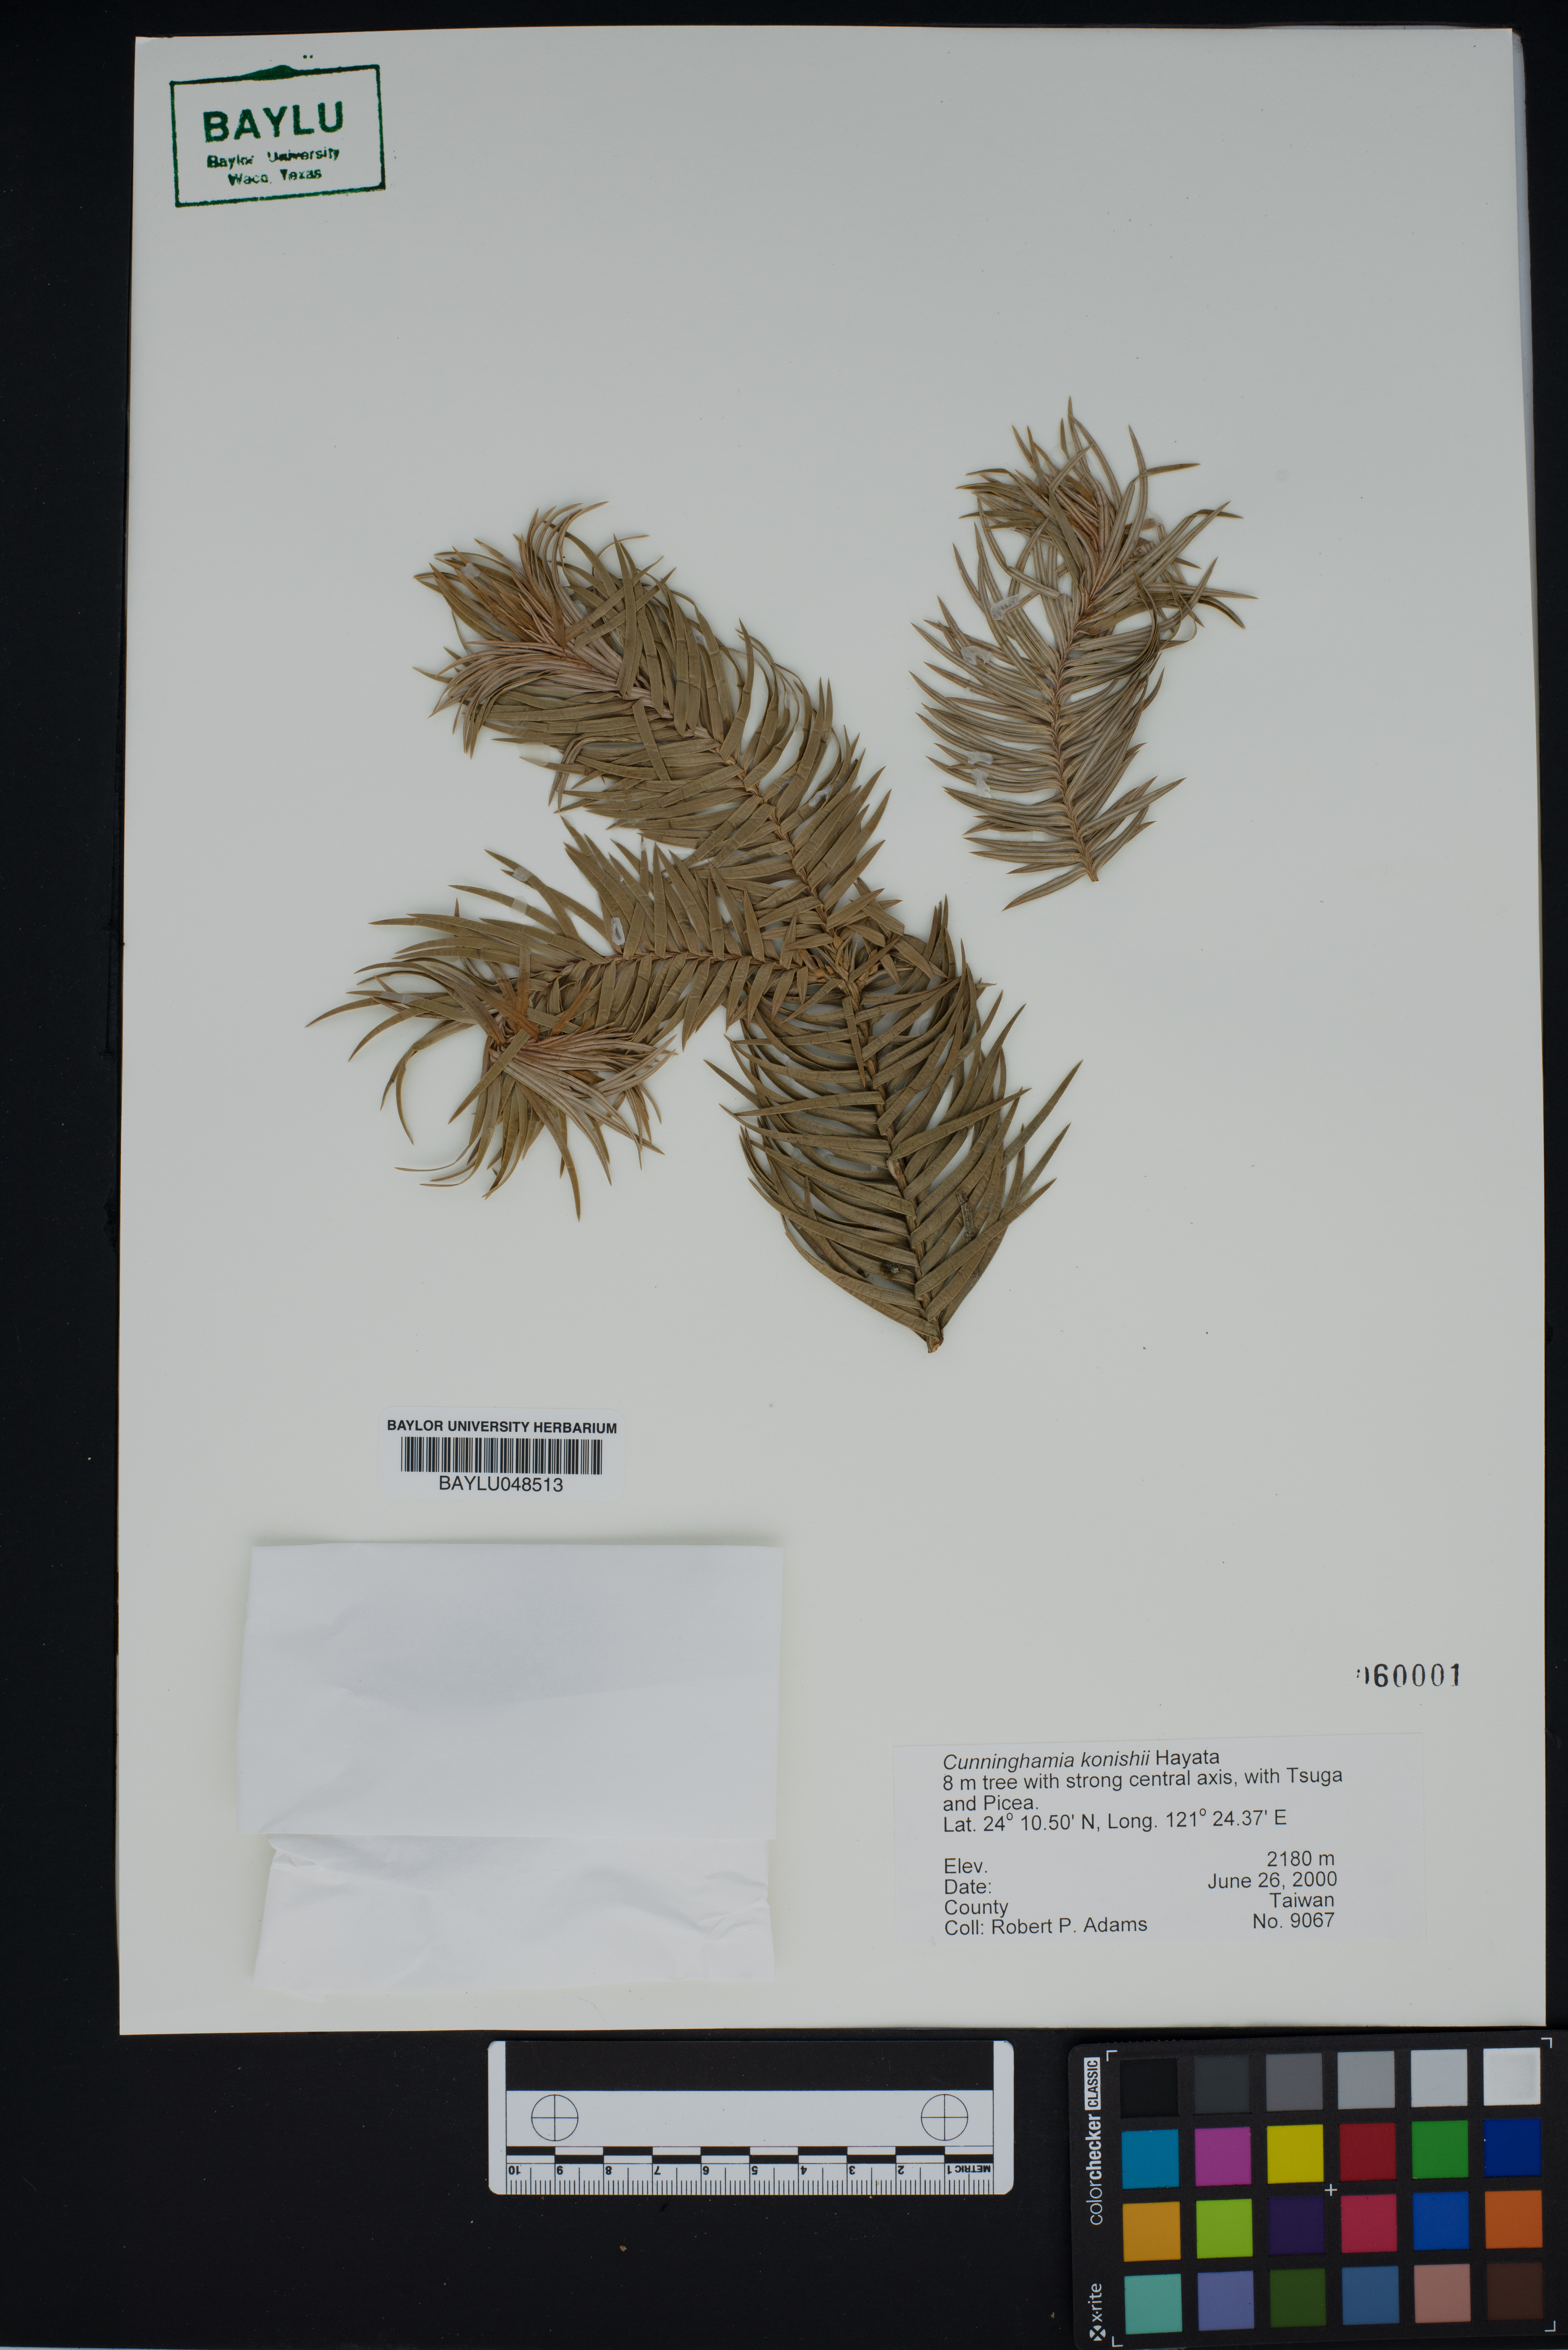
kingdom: Plantae
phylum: Tracheophyta
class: Pinopsida
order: Pinales
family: Cupressaceae
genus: Cunninghamia
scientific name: Cunninghamia konishii
